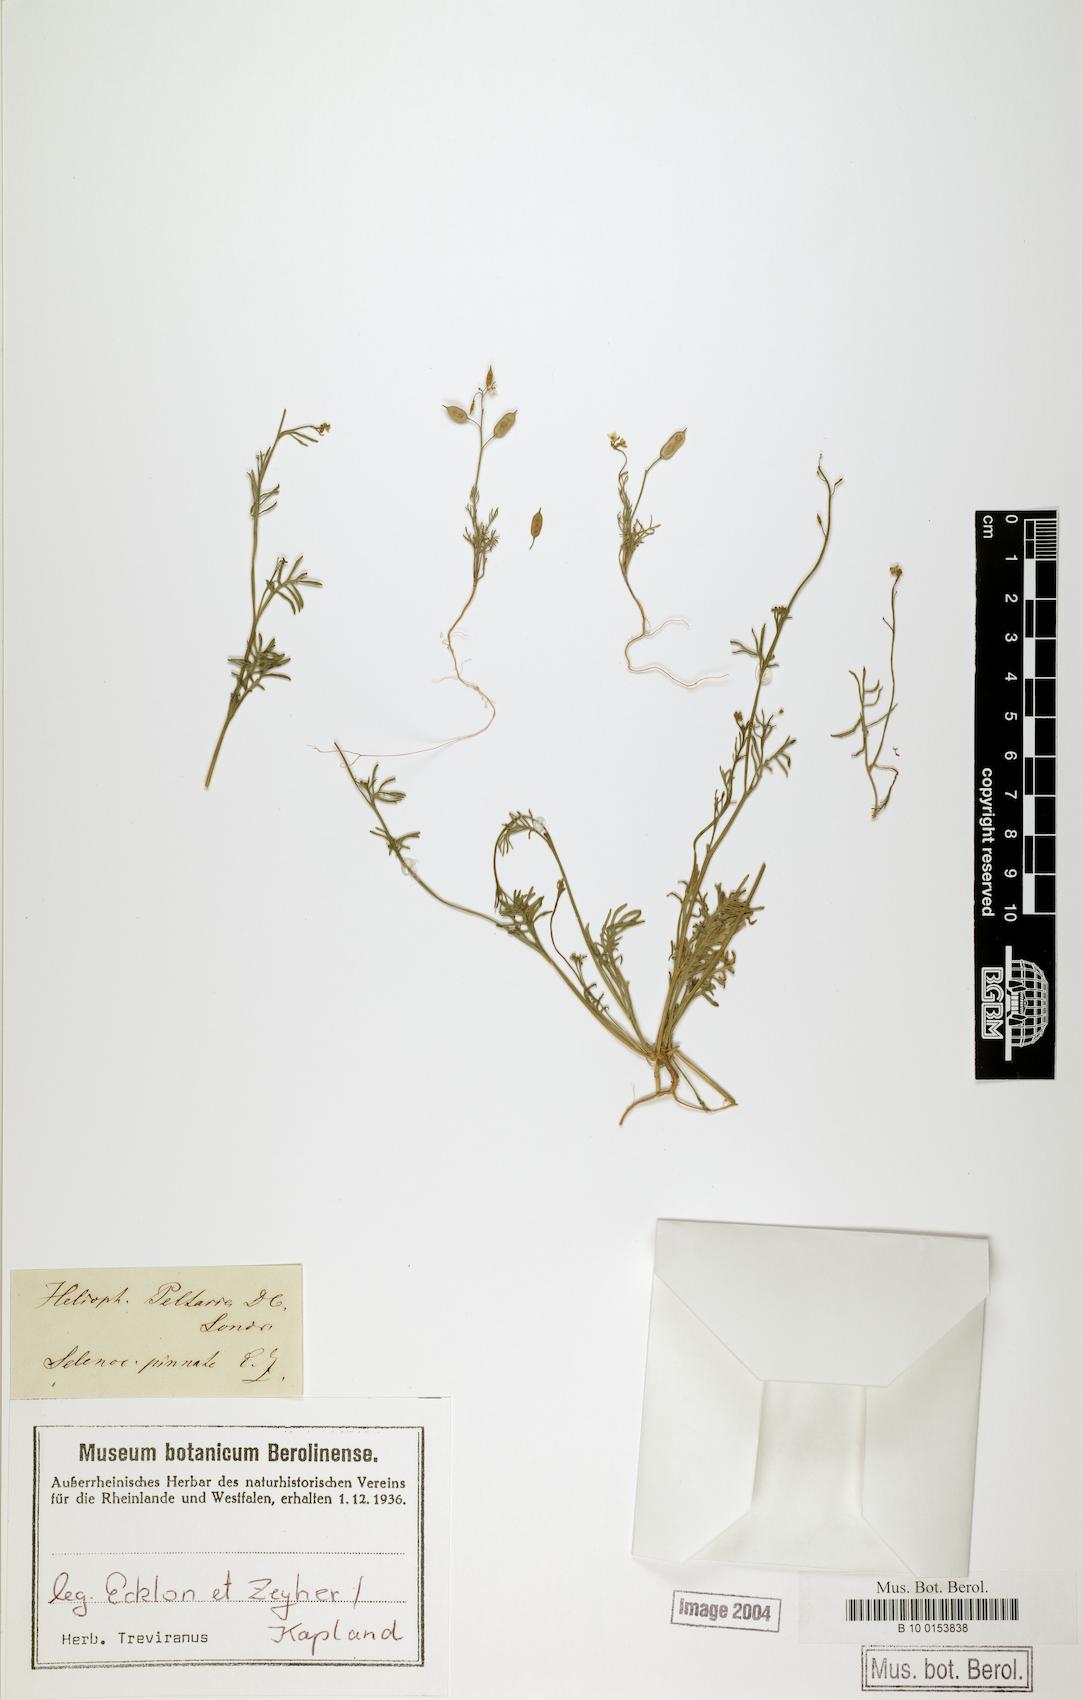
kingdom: Plantae
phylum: Tracheophyta
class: Magnoliopsida
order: Brassicales
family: Brassicaceae
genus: Heliophila
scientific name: Heliophila diffusa
